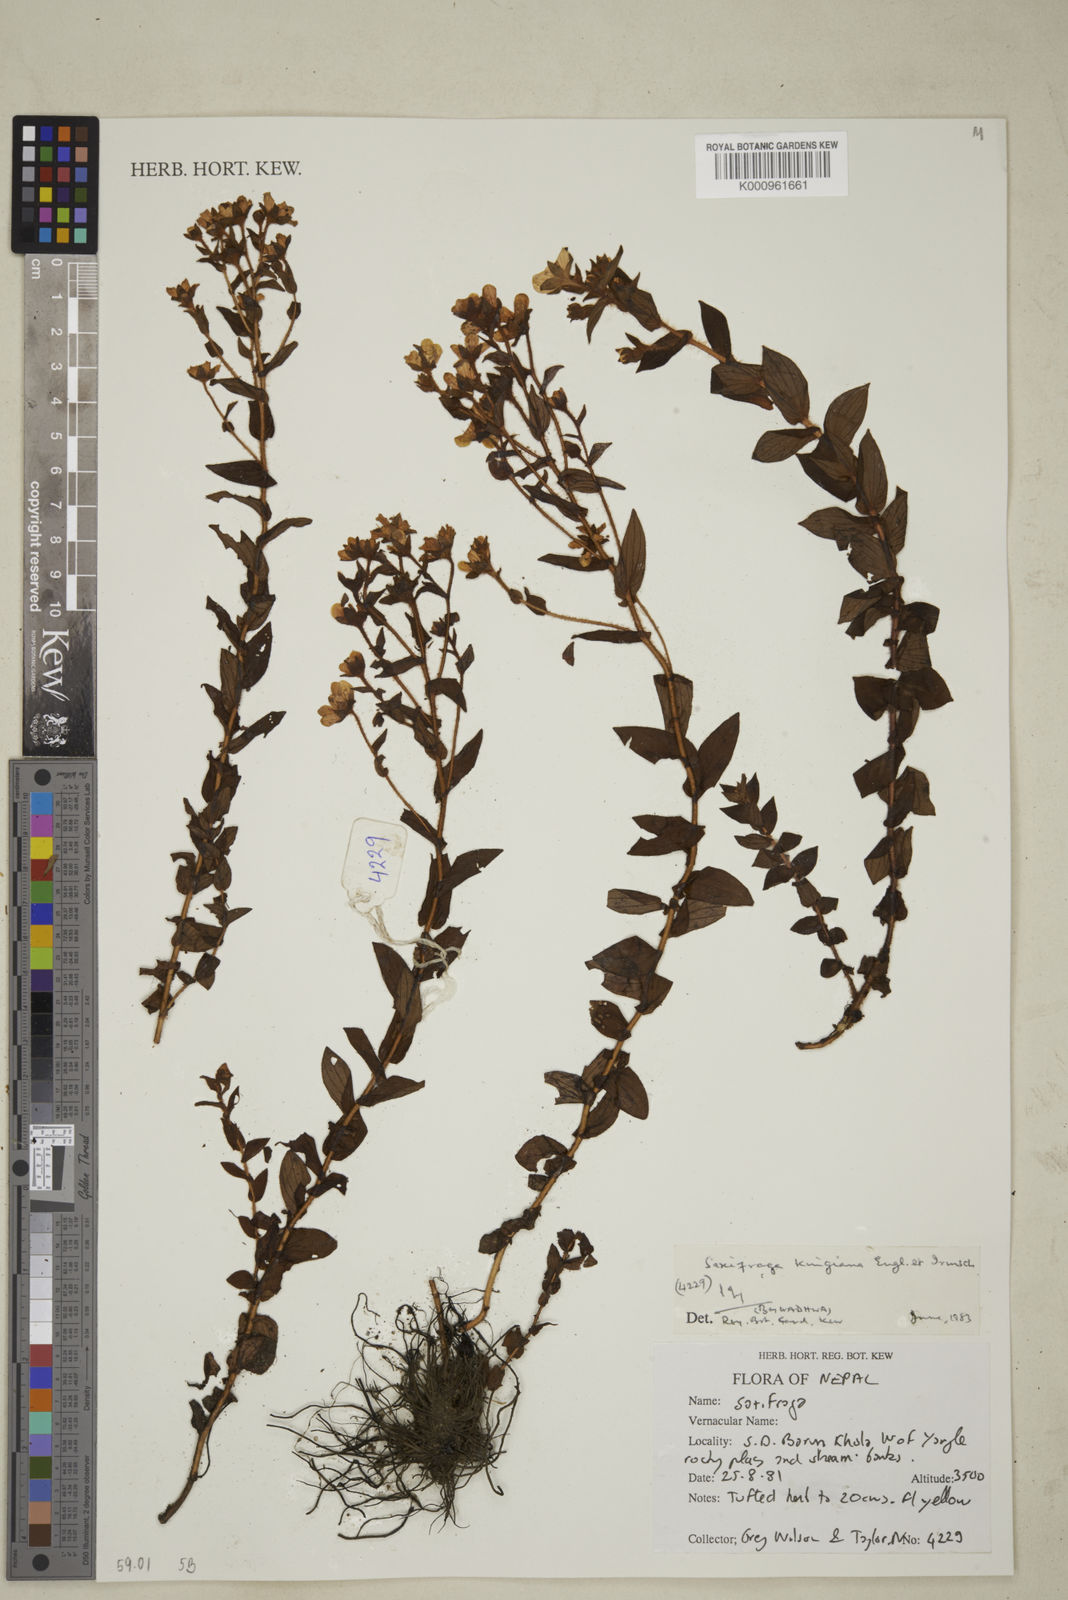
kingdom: Plantae
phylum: Tracheophyta
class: Magnoliopsida
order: Saxifragales
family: Saxifragaceae
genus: Saxifraga
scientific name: Saxifraga kingiana
